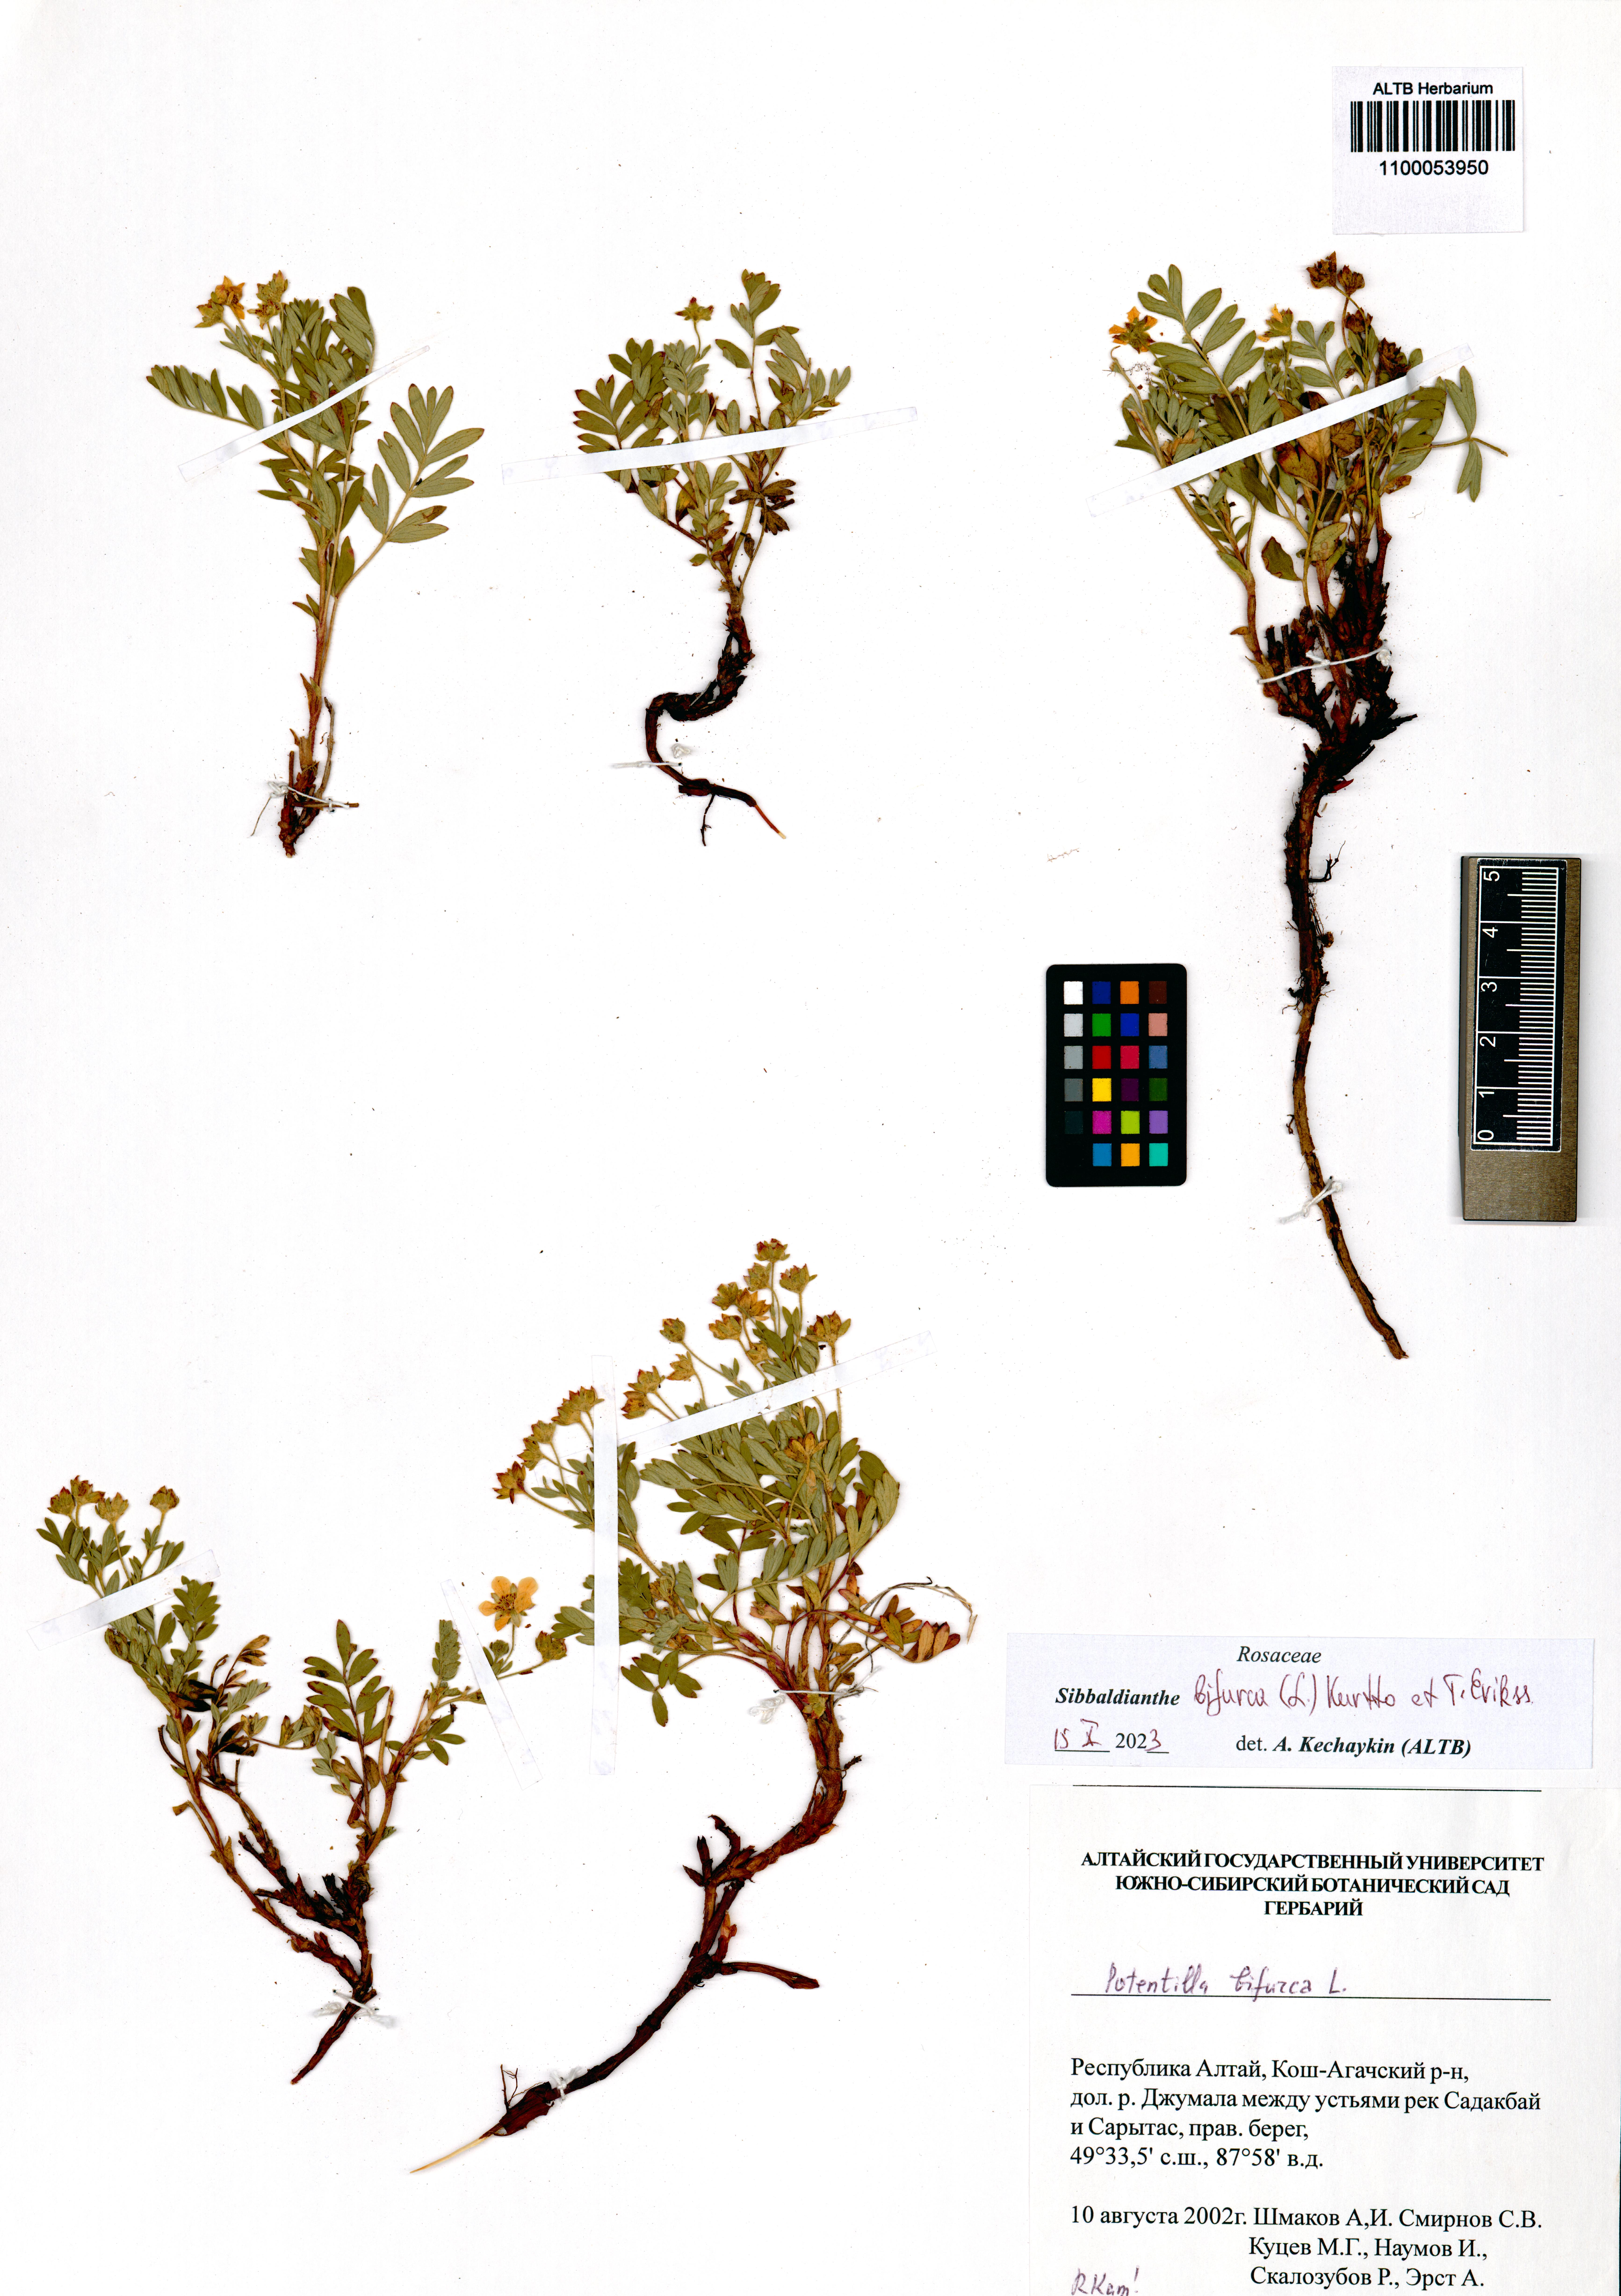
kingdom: Plantae
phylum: Tracheophyta
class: Magnoliopsida
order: Rosales
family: Rosaceae
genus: Sibbaldianthe
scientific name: Sibbaldianthe bifurca
